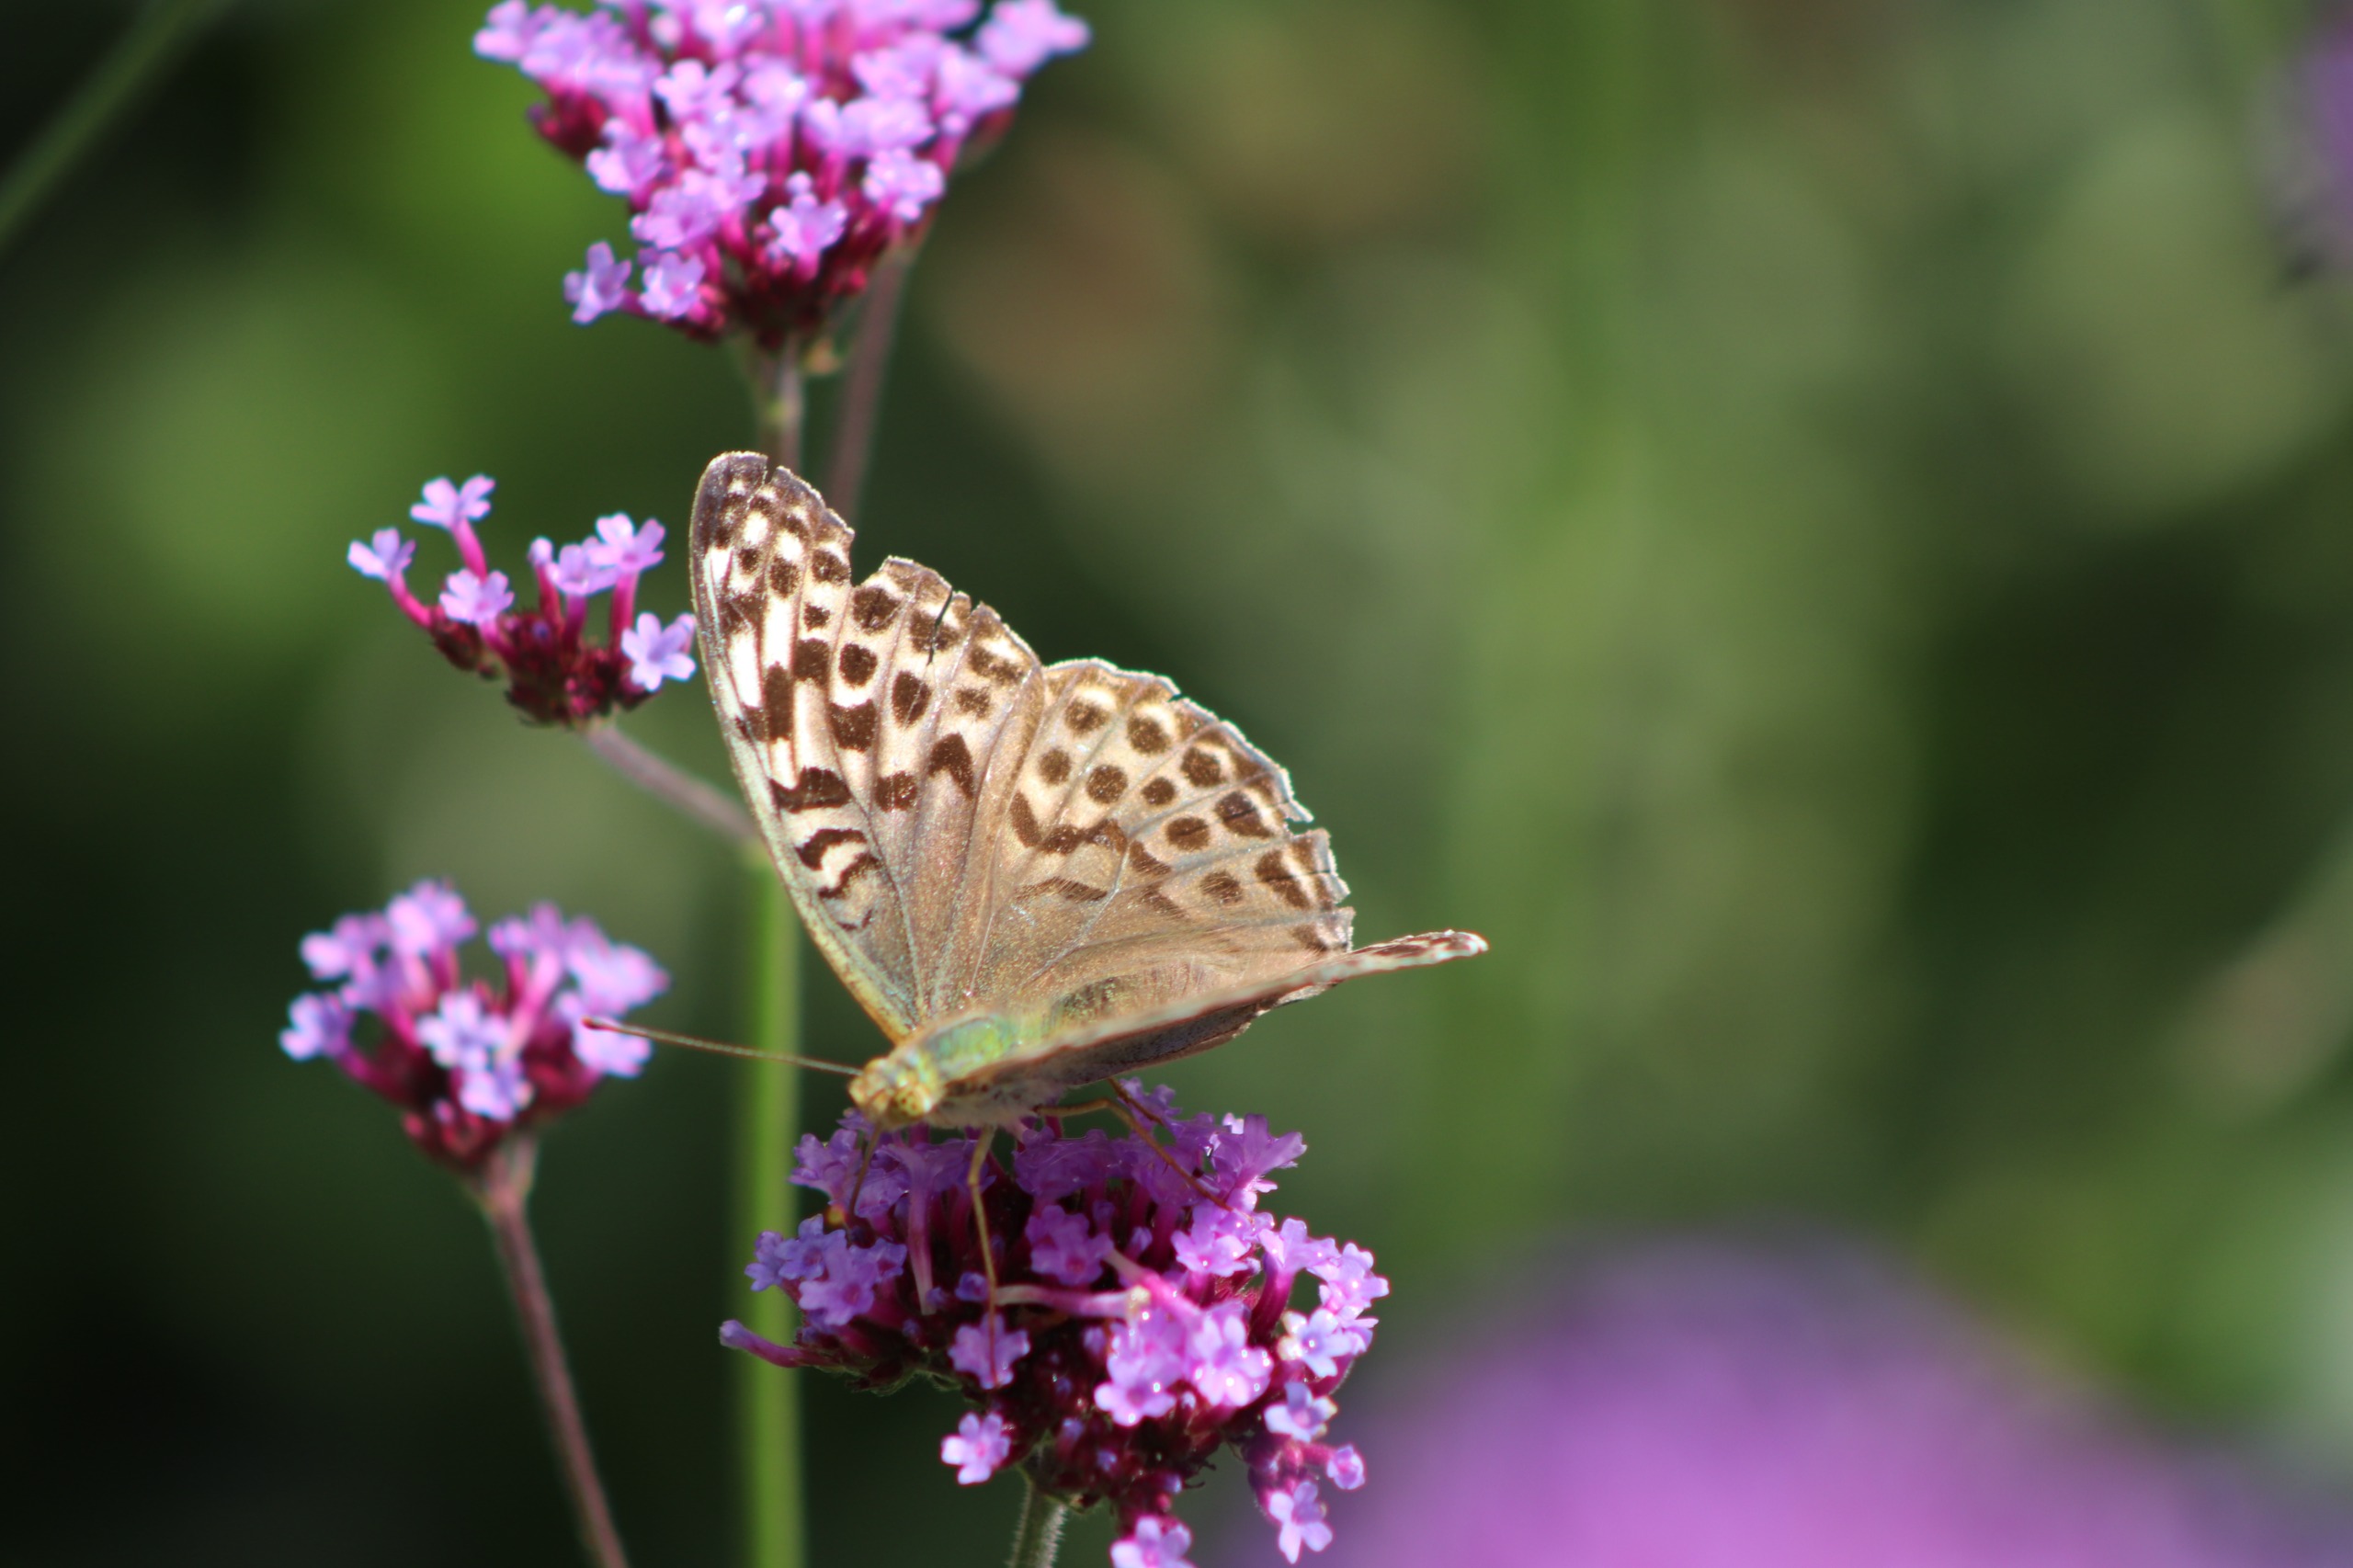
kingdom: Animalia
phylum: Arthropoda
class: Insecta
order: Lepidoptera
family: Nymphalidae
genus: Argynnis
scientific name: Argynnis paphia
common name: Kejserkåbe
